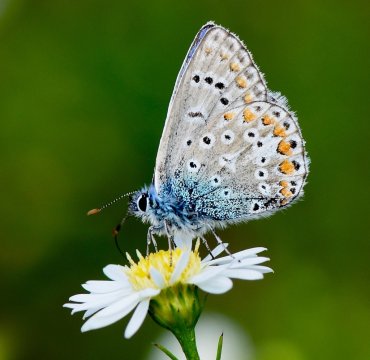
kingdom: Animalia
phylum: Arthropoda
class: Insecta
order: Lepidoptera
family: Lycaenidae
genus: Polyommatus
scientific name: Polyommatus icarus
